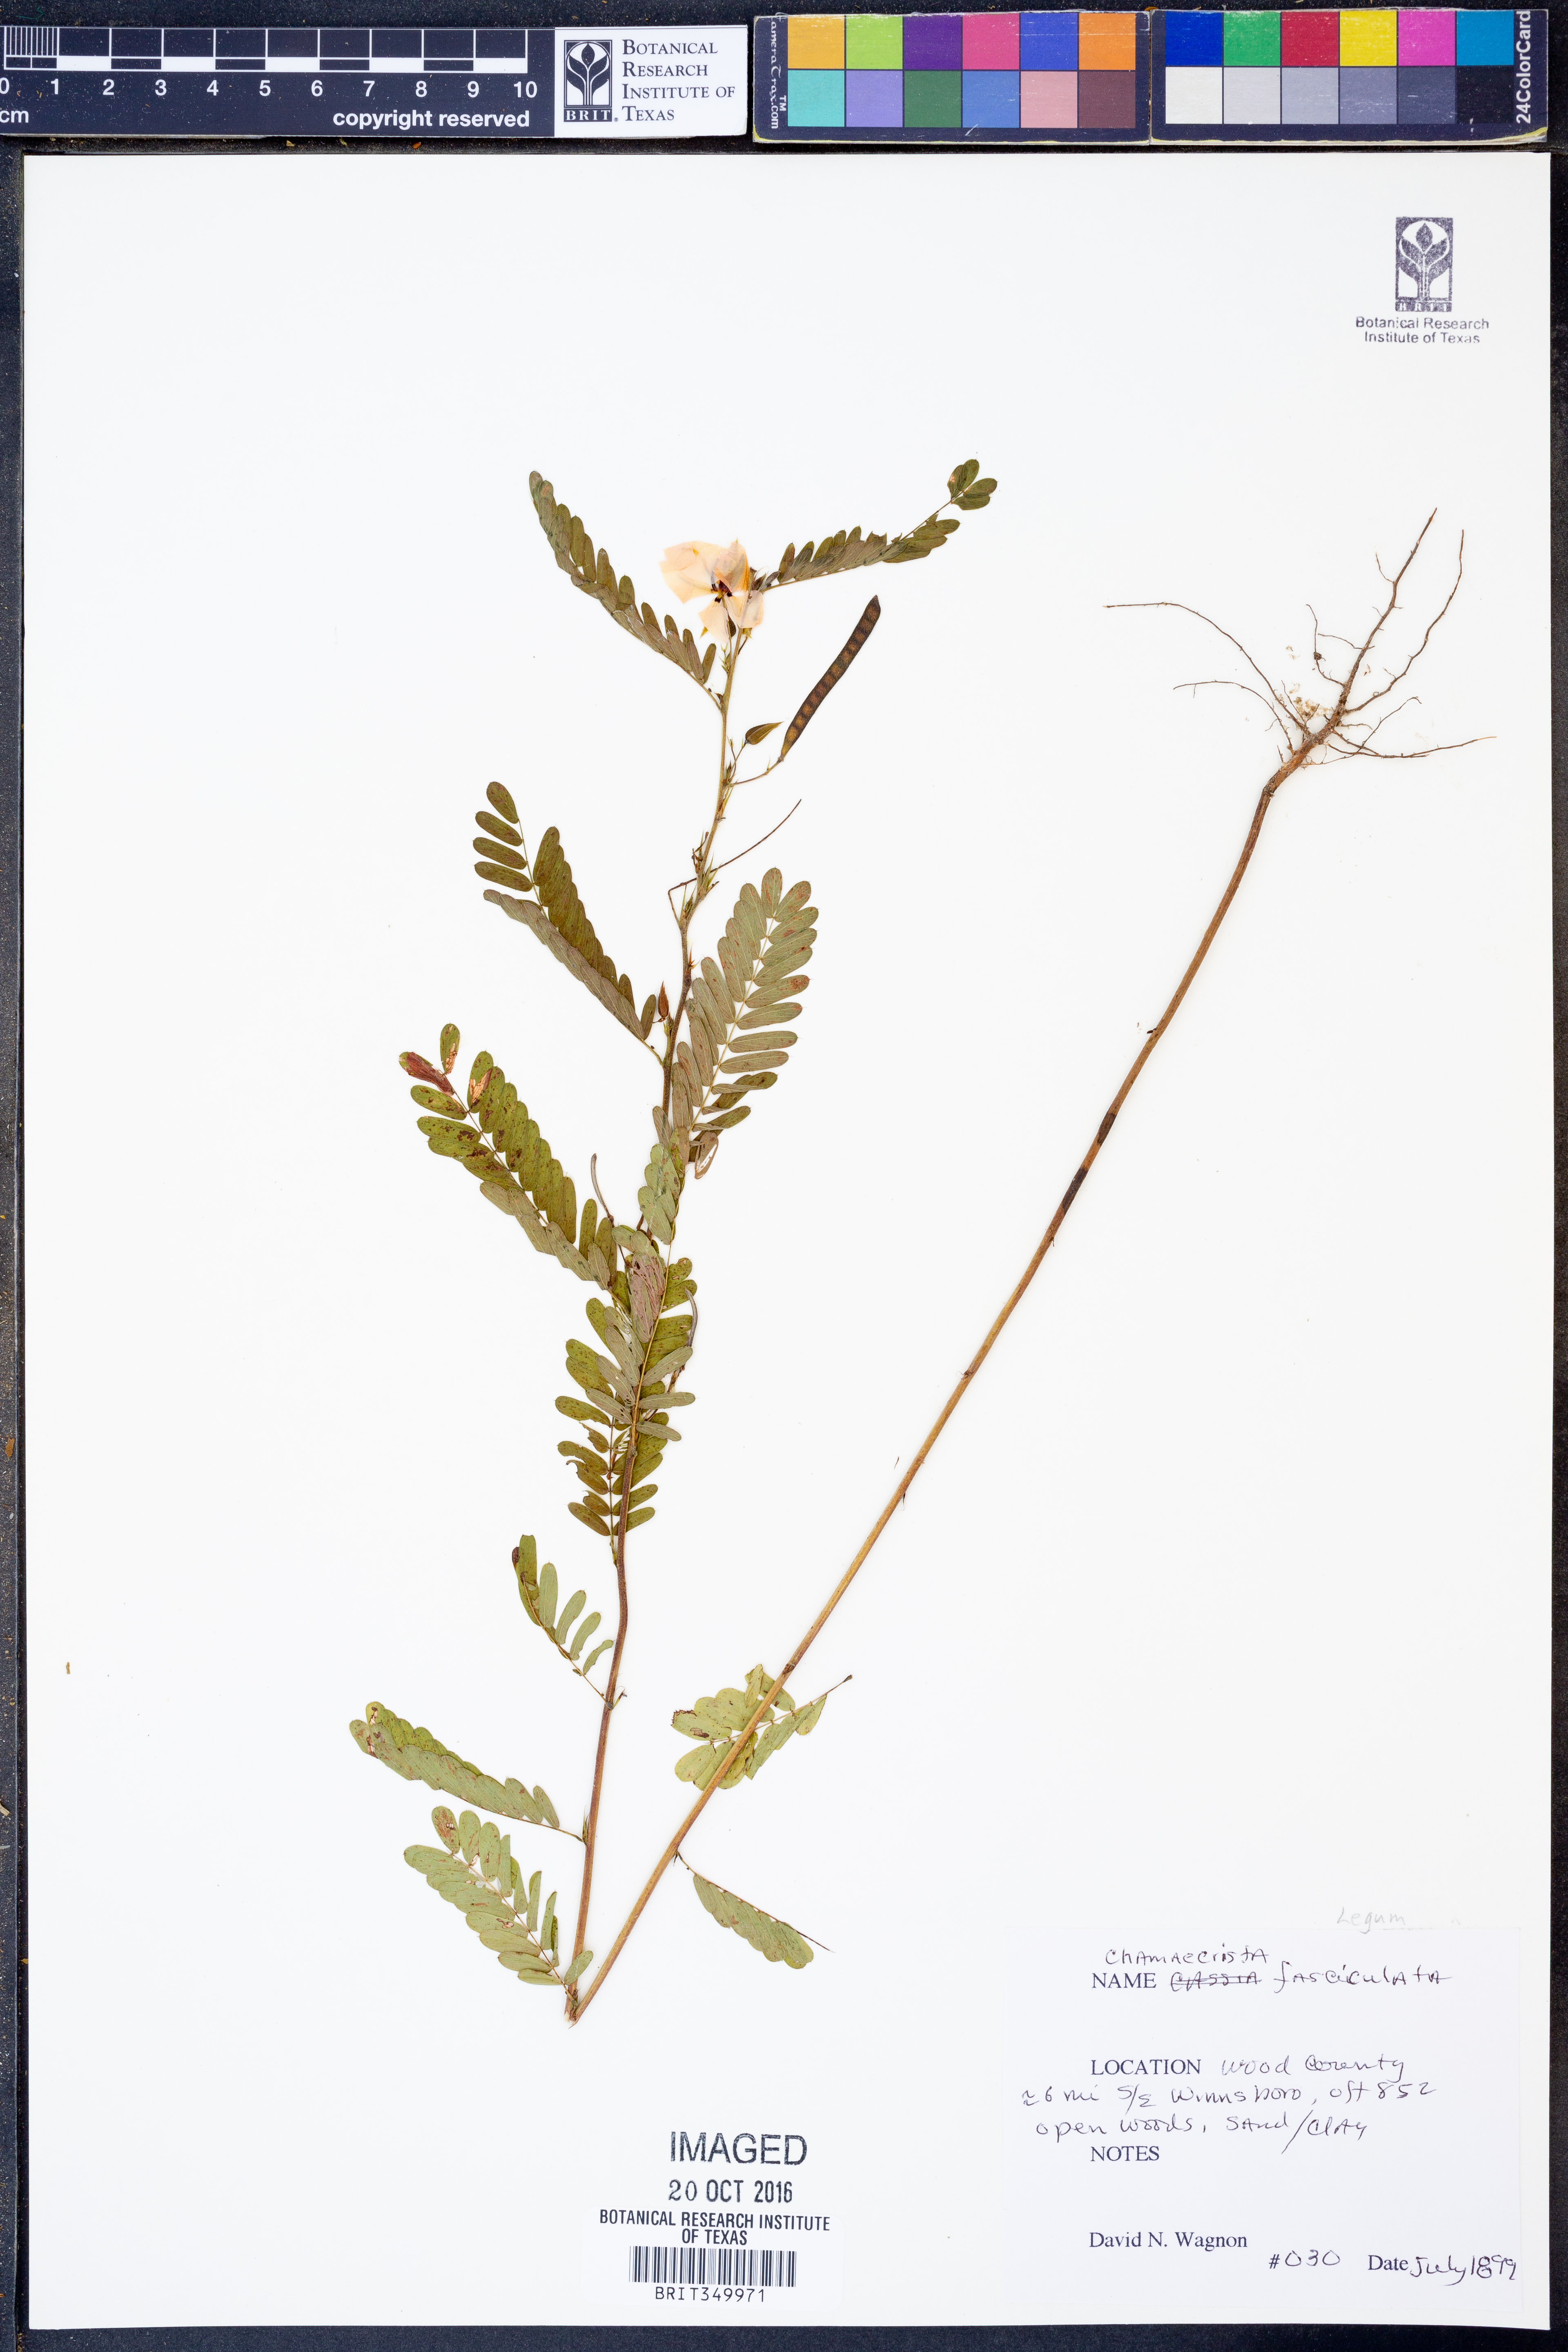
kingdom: Plantae
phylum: Tracheophyta
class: Magnoliopsida
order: Fabales
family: Fabaceae
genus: Chamaecrista
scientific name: Chamaecrista fasciculata
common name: Golden cassia
